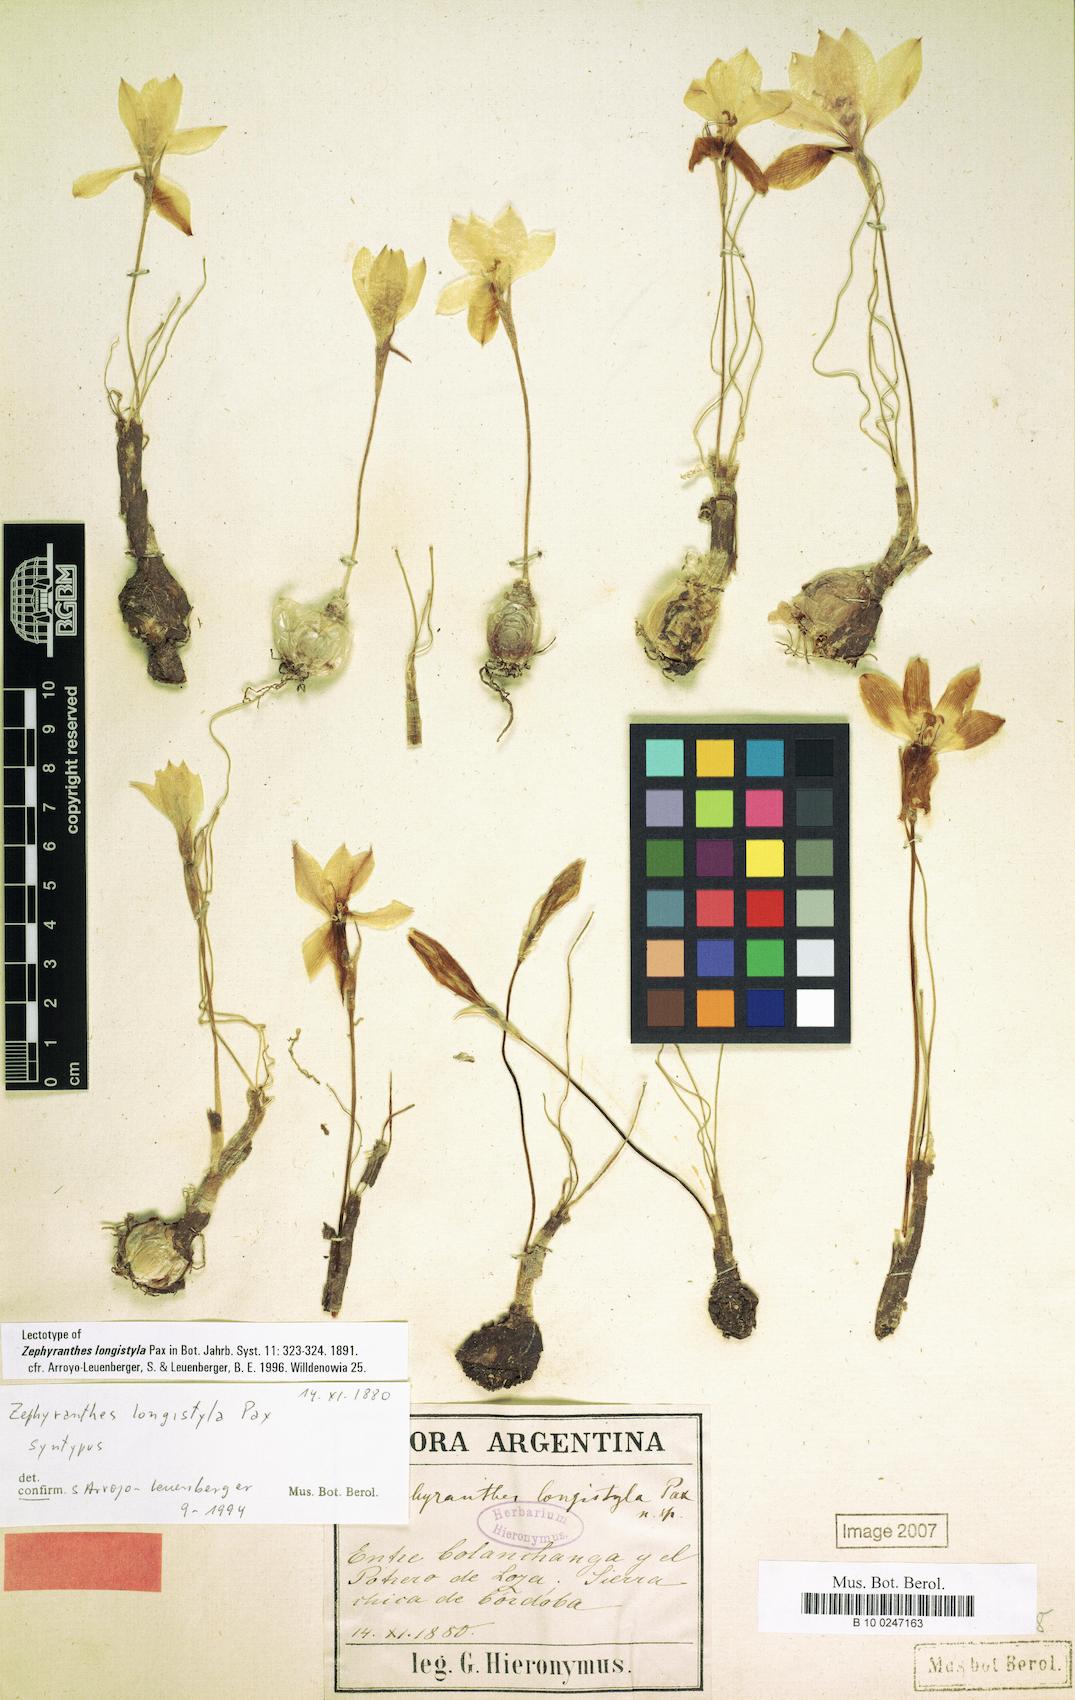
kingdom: Plantae
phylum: Tracheophyta
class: Liliopsida
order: Asparagales
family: Amaryllidaceae
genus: Zephyranthes
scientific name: Zephyranthes longistyla
